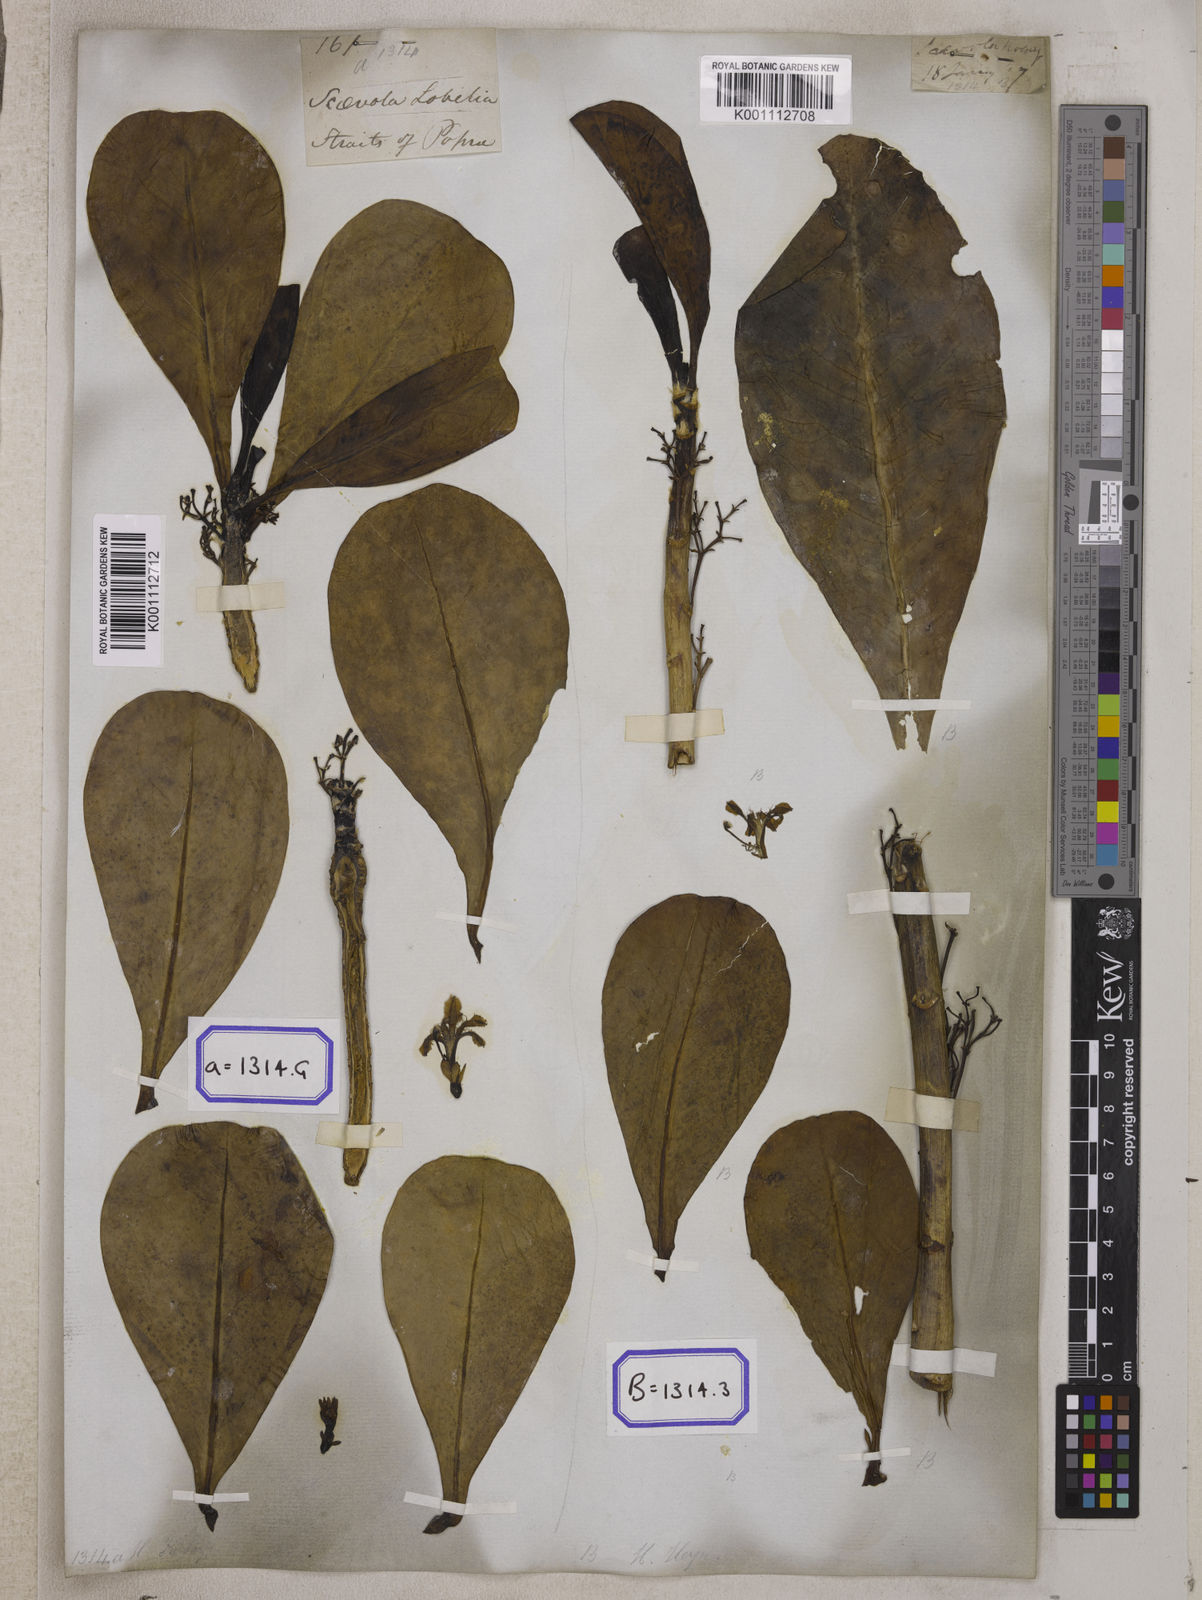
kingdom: Plantae
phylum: Tracheophyta
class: Magnoliopsida
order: Asterales
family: Goodeniaceae
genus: Scaevola
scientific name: Scaevola taccada
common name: Sea lettucetree
